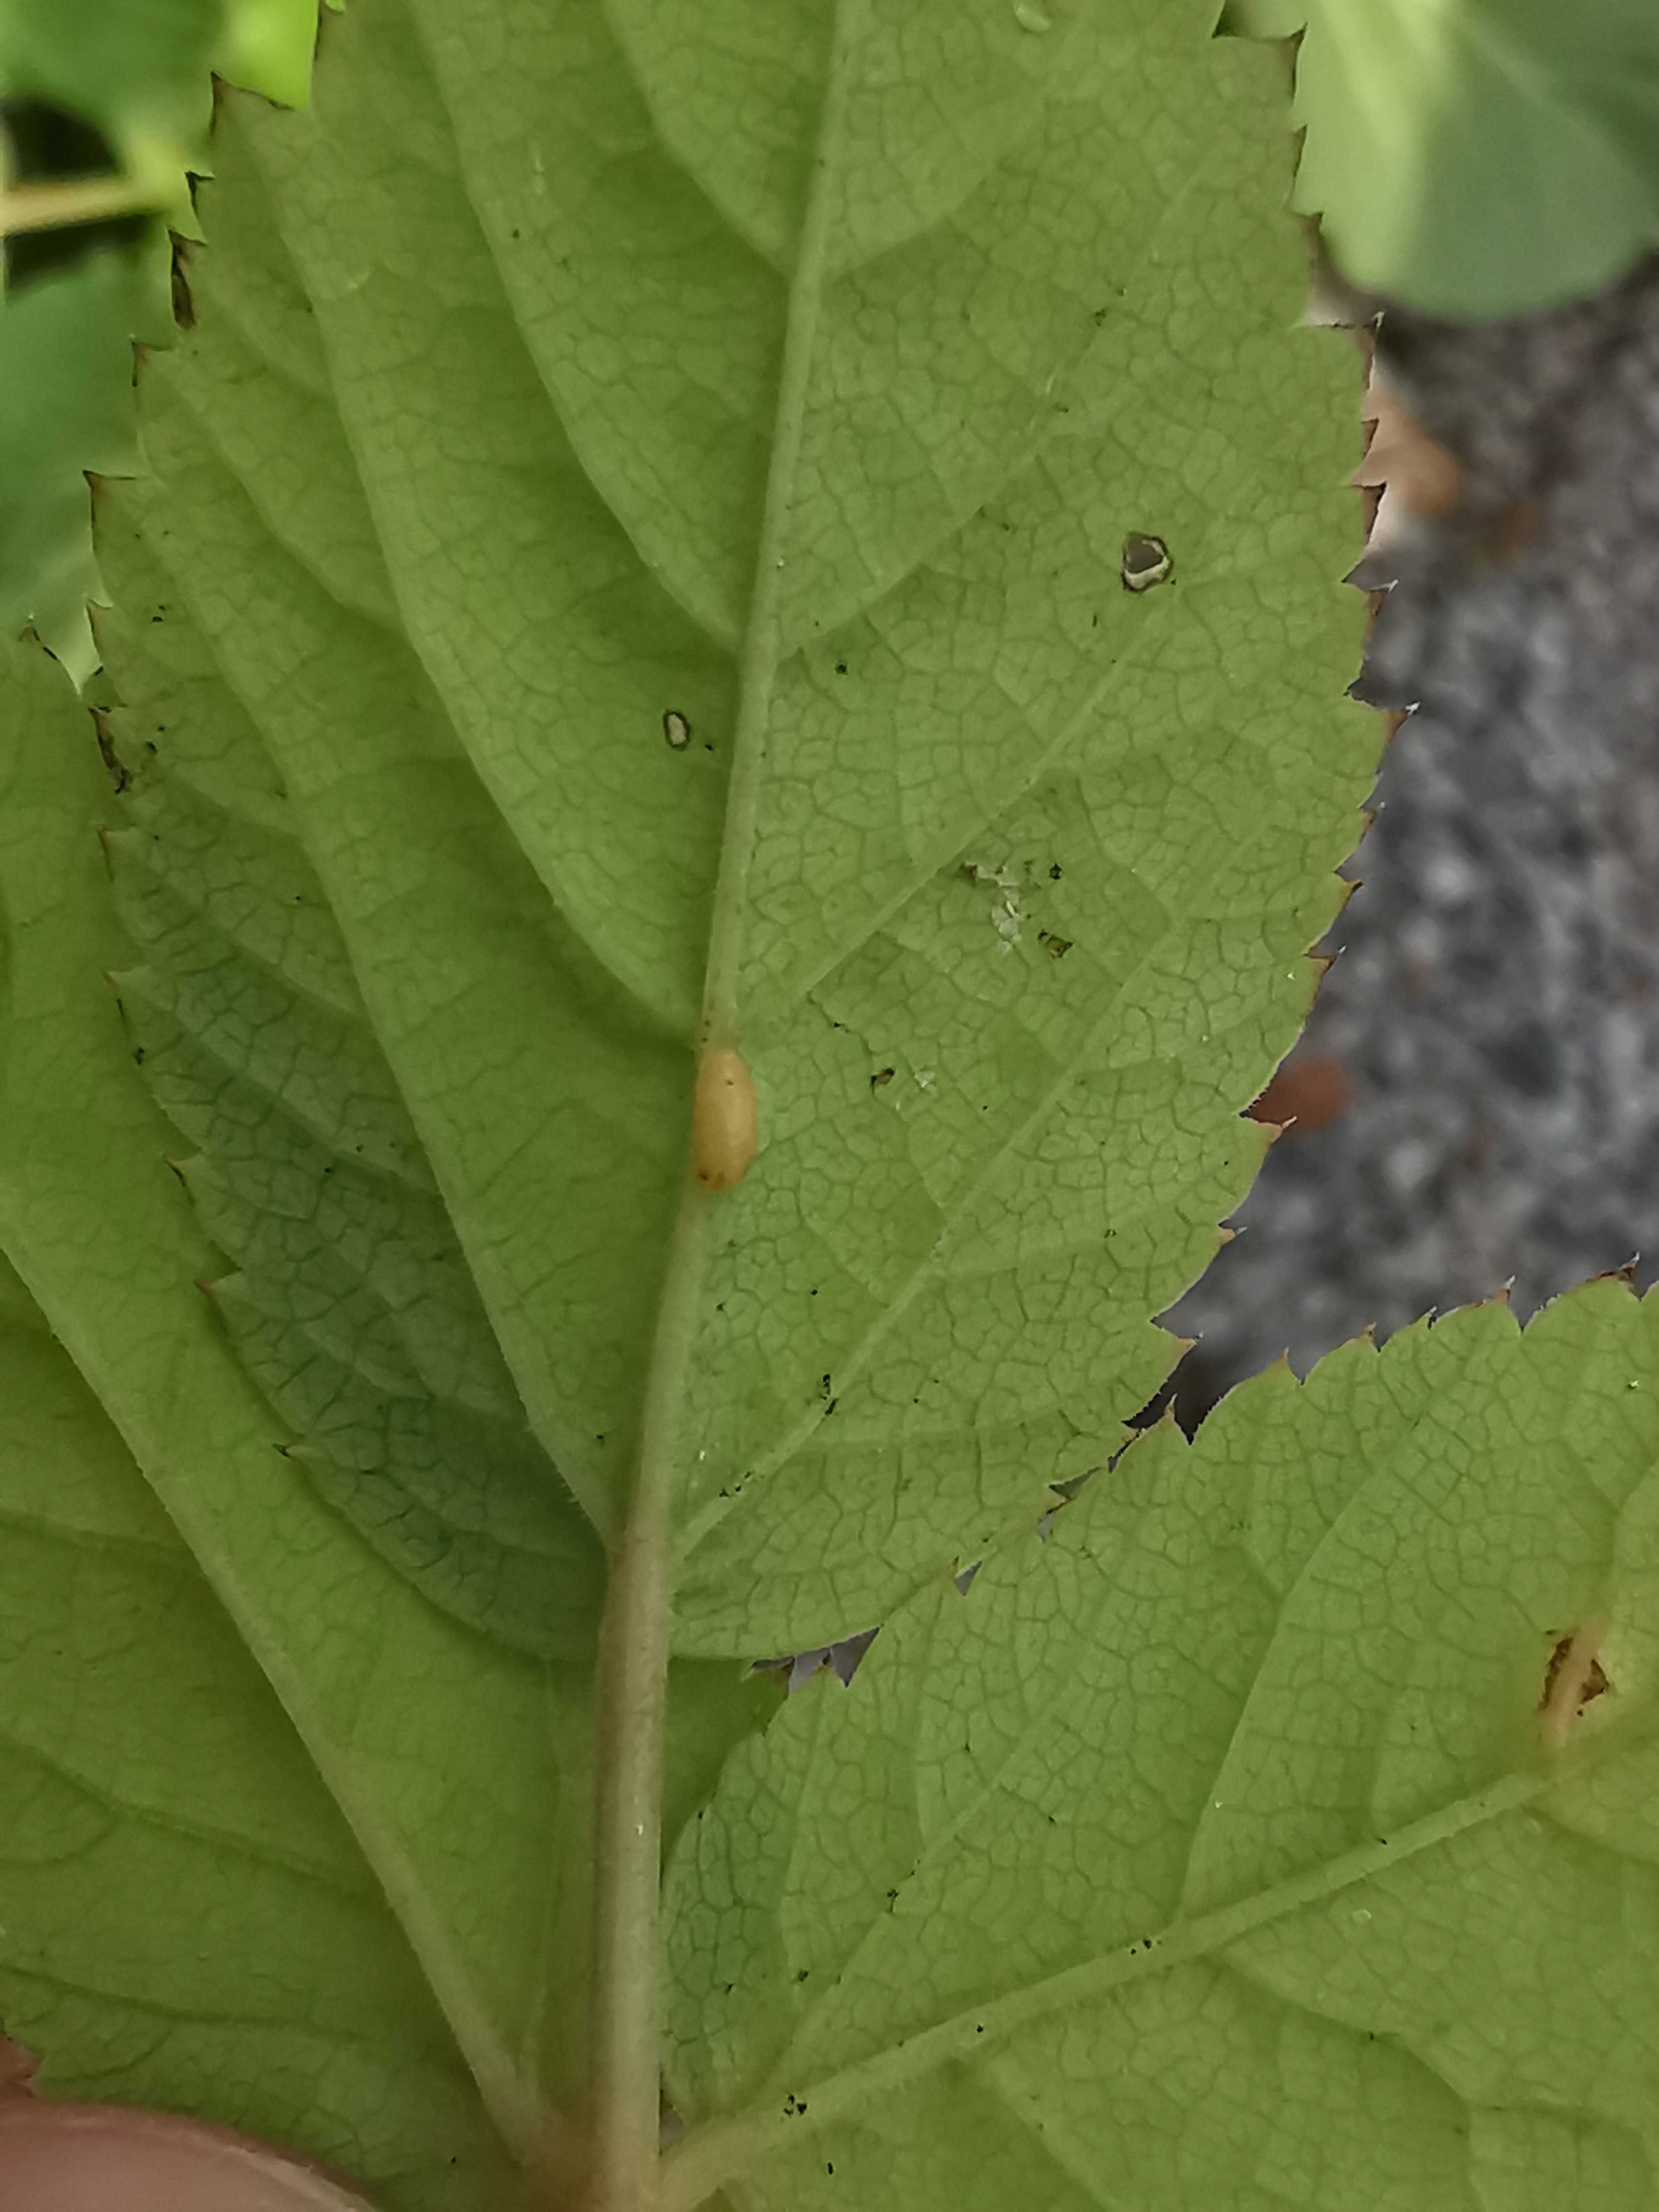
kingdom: Fungi
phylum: Ascomycota
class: Taphrinomycetes
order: Taphrinales
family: Taphrinaceae
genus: Protomyces
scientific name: Protomyces macrosporus
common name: skvalderkål-vablesæk
